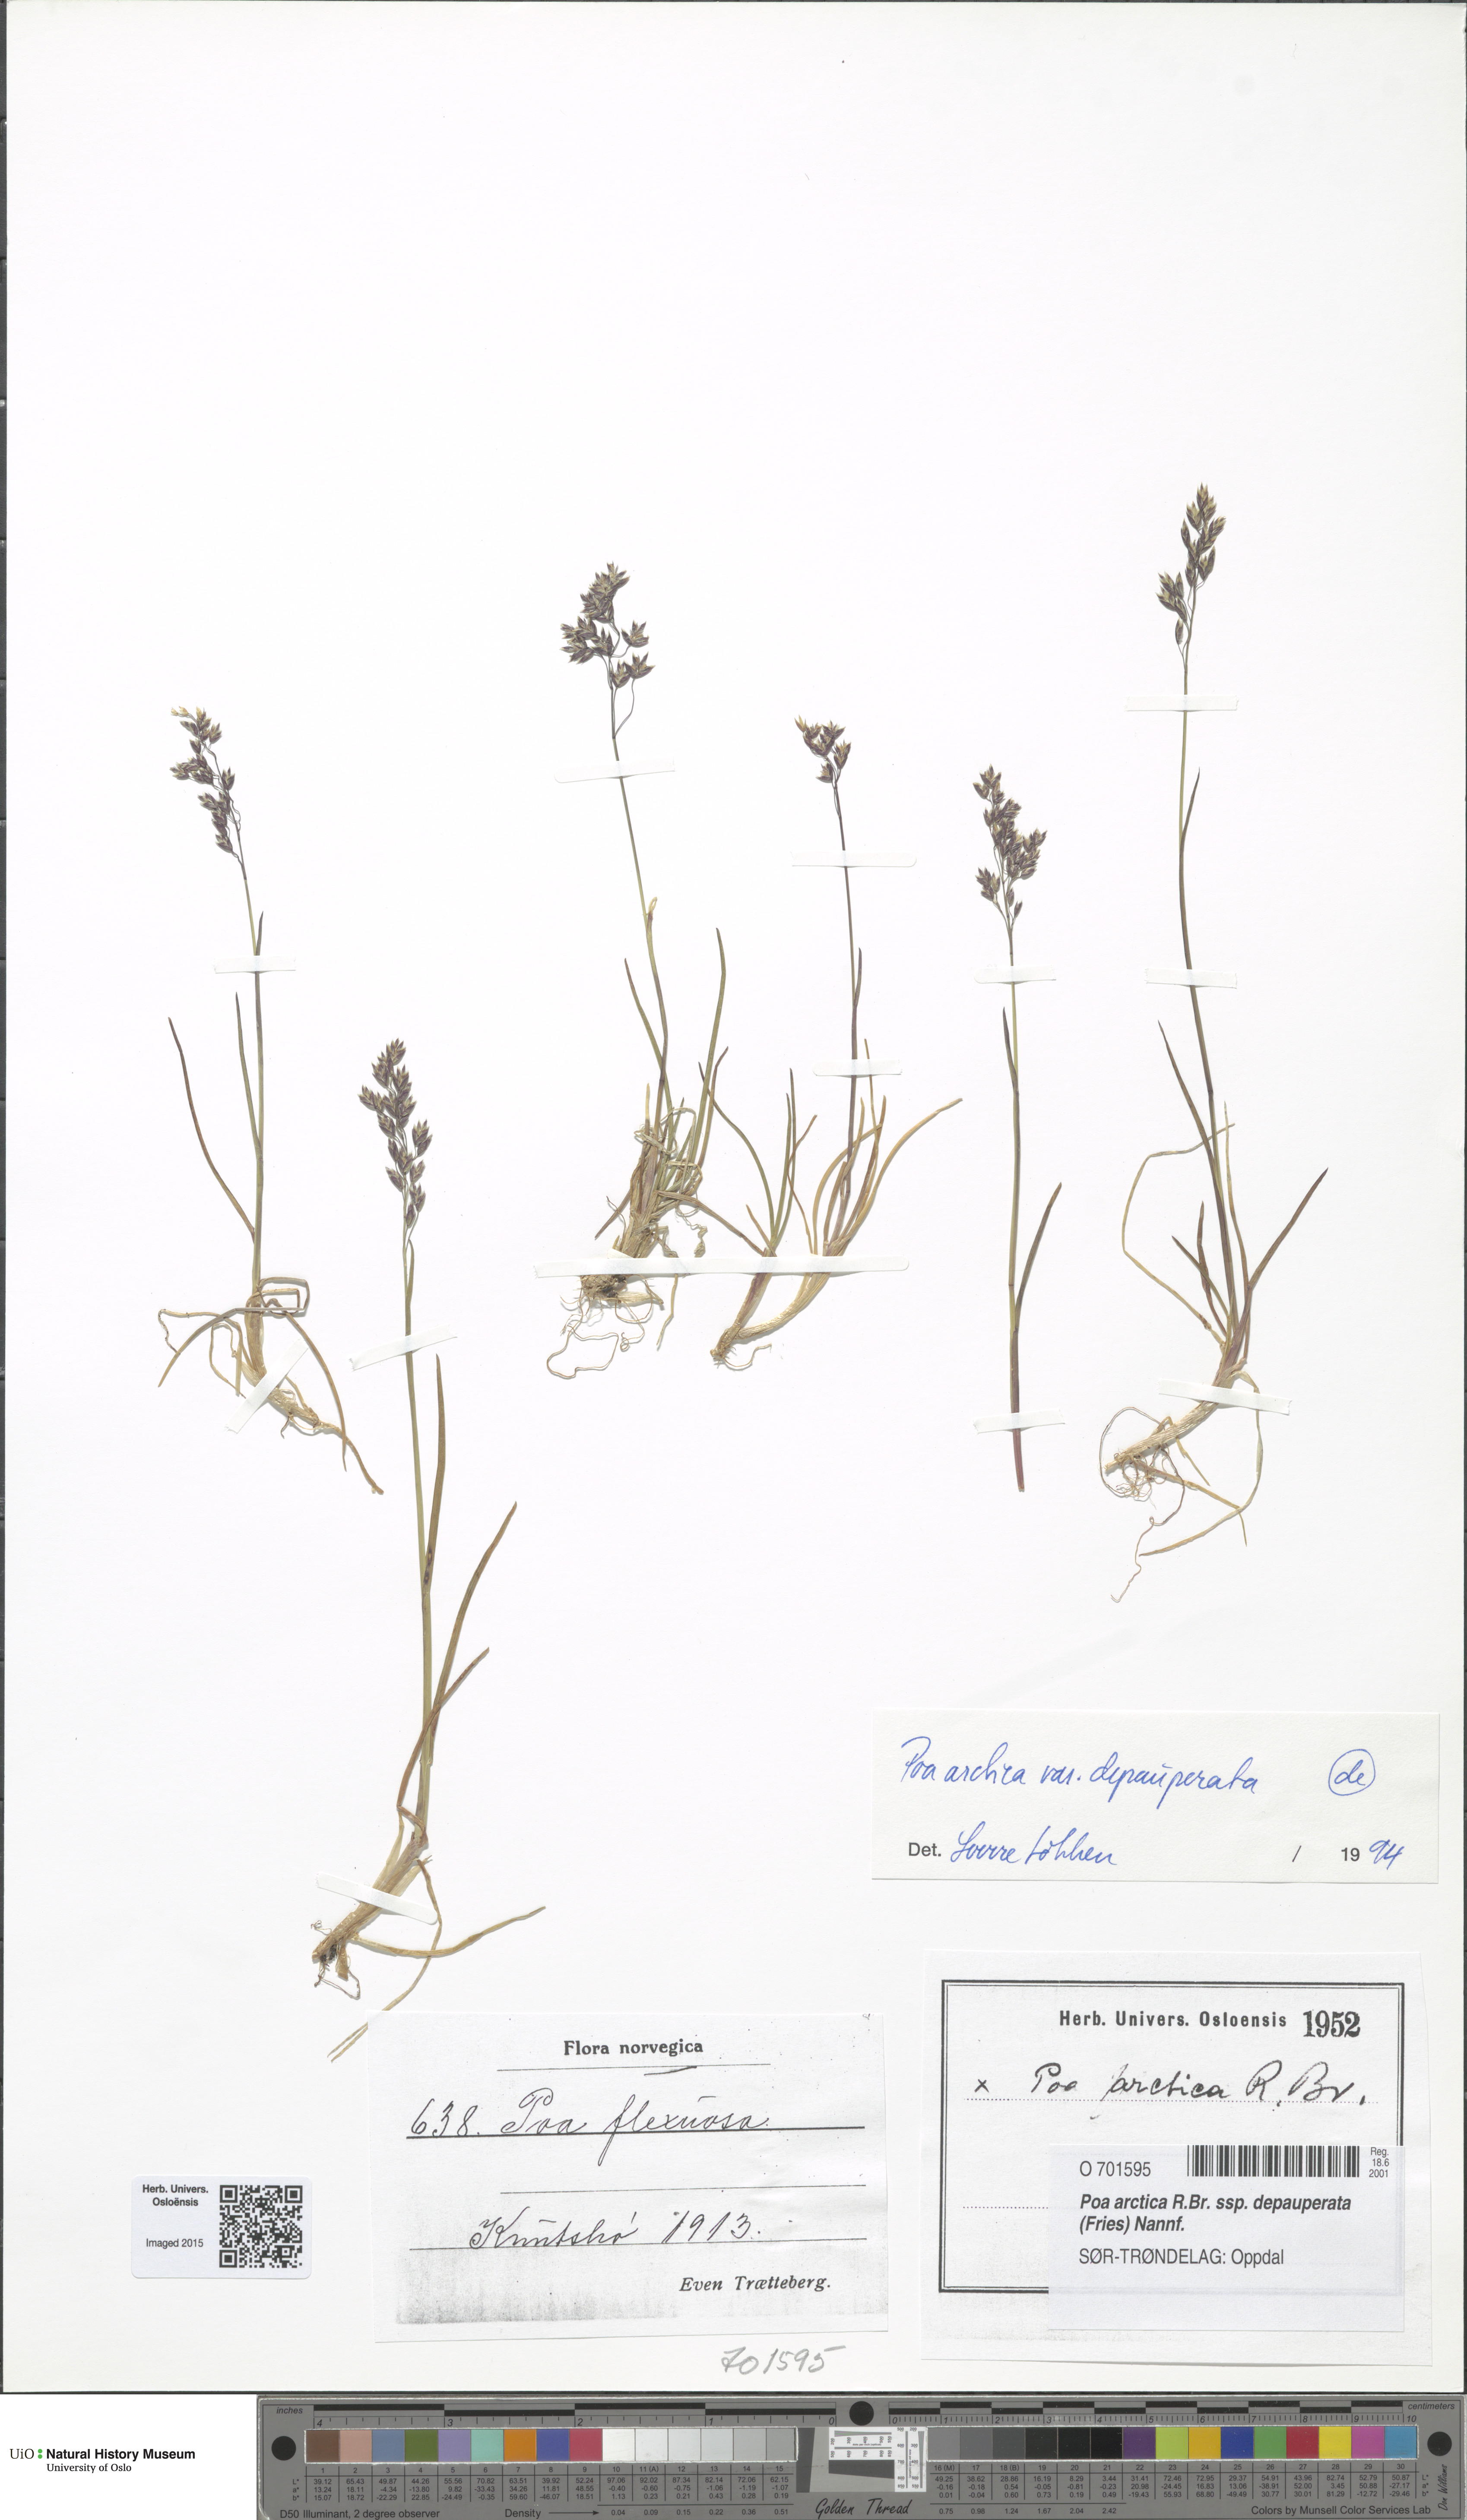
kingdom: Plantae
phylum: Tracheophyta
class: Liliopsida
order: Poales
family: Poaceae
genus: Poa
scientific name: Poa arctica
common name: Arctic bluegrass
